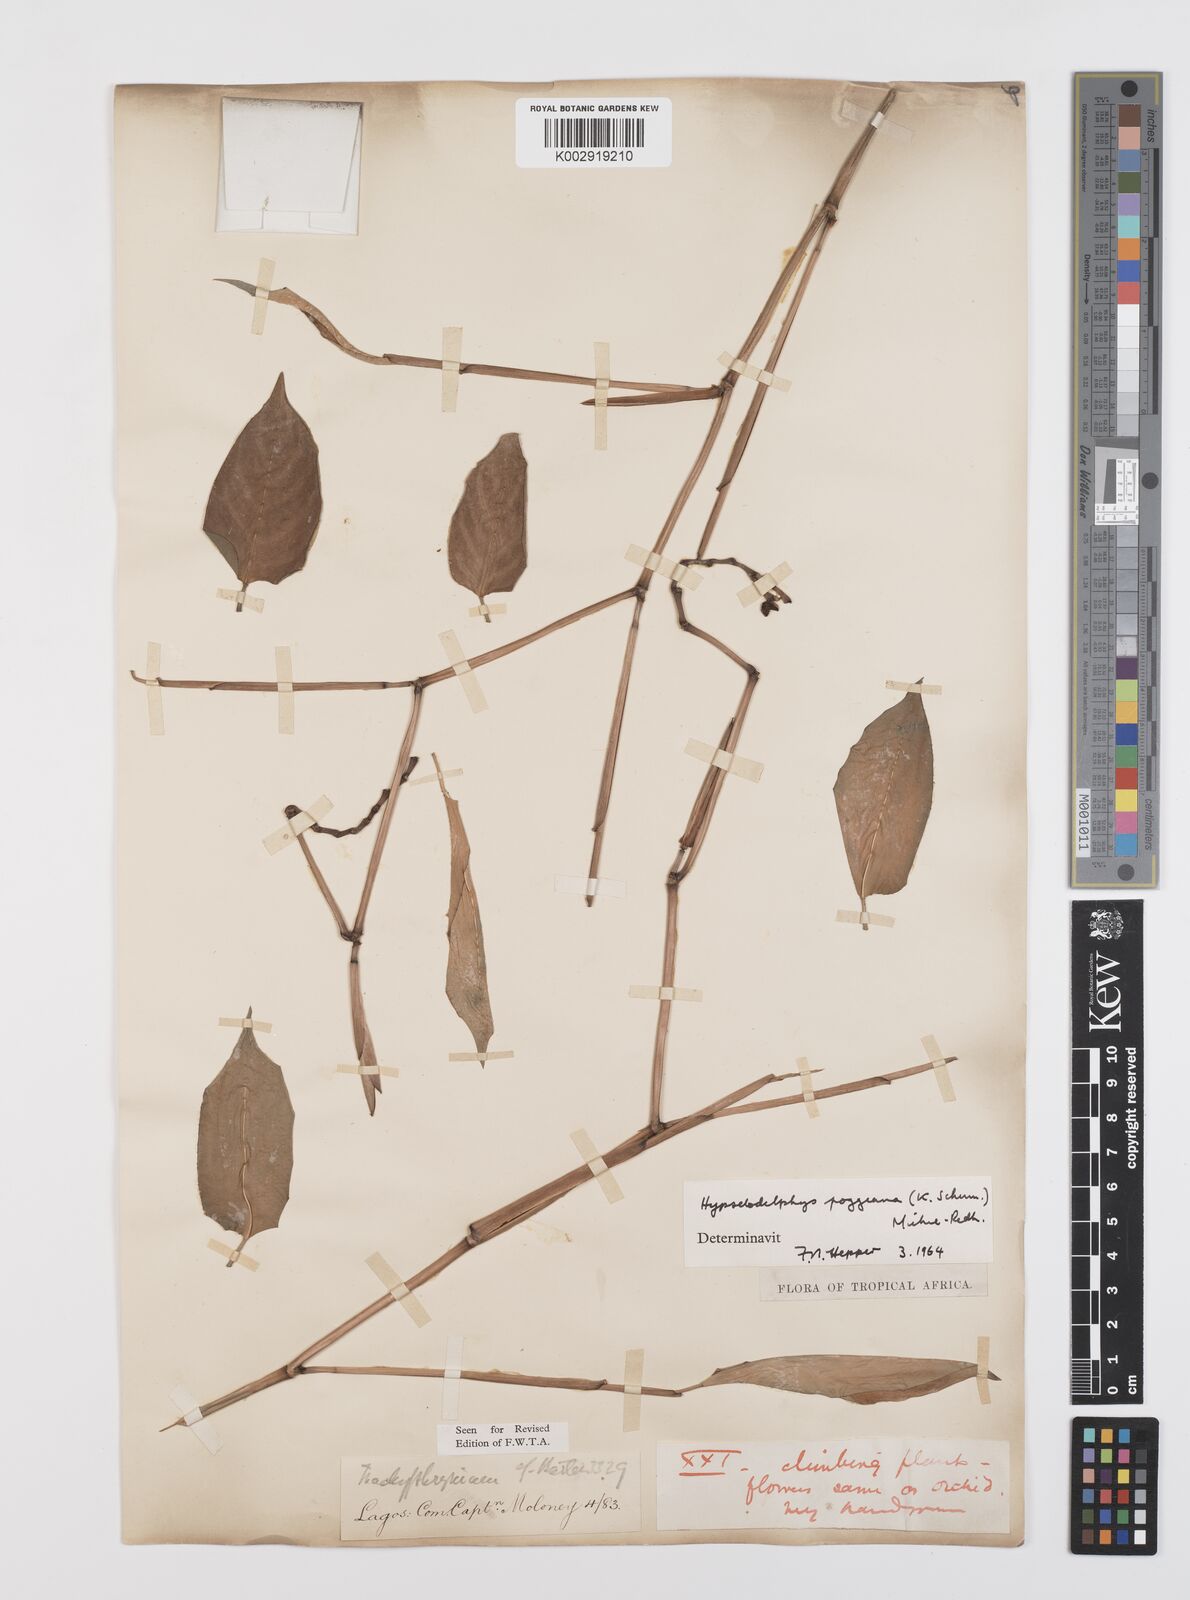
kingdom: Plantae
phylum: Tracheophyta
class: Liliopsida
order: Zingiberales
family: Marantaceae
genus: Hypselodelphys
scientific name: Hypselodelphys poggeana
